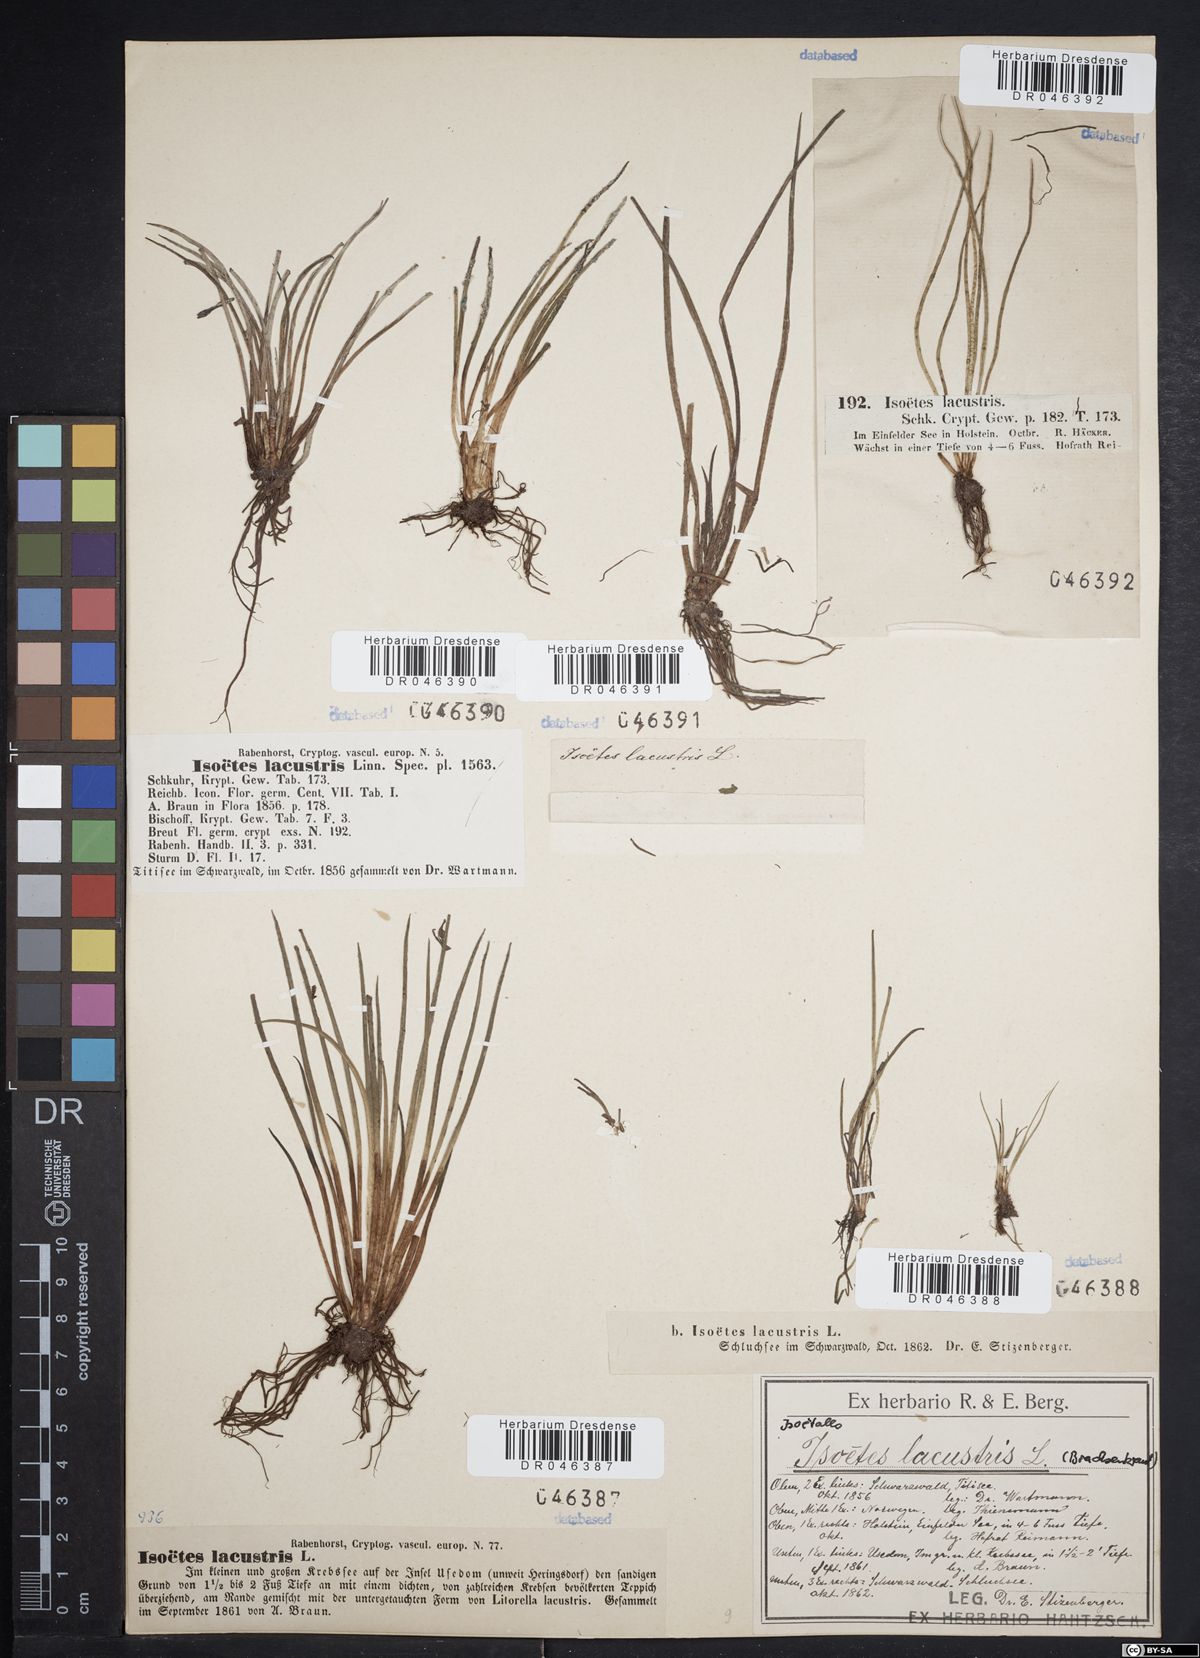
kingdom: Plantae
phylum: Tracheophyta
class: Lycopodiopsida
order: Isoetales
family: Isoetaceae
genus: Isoetes
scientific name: Isoetes lacustris
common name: Common quillwort
